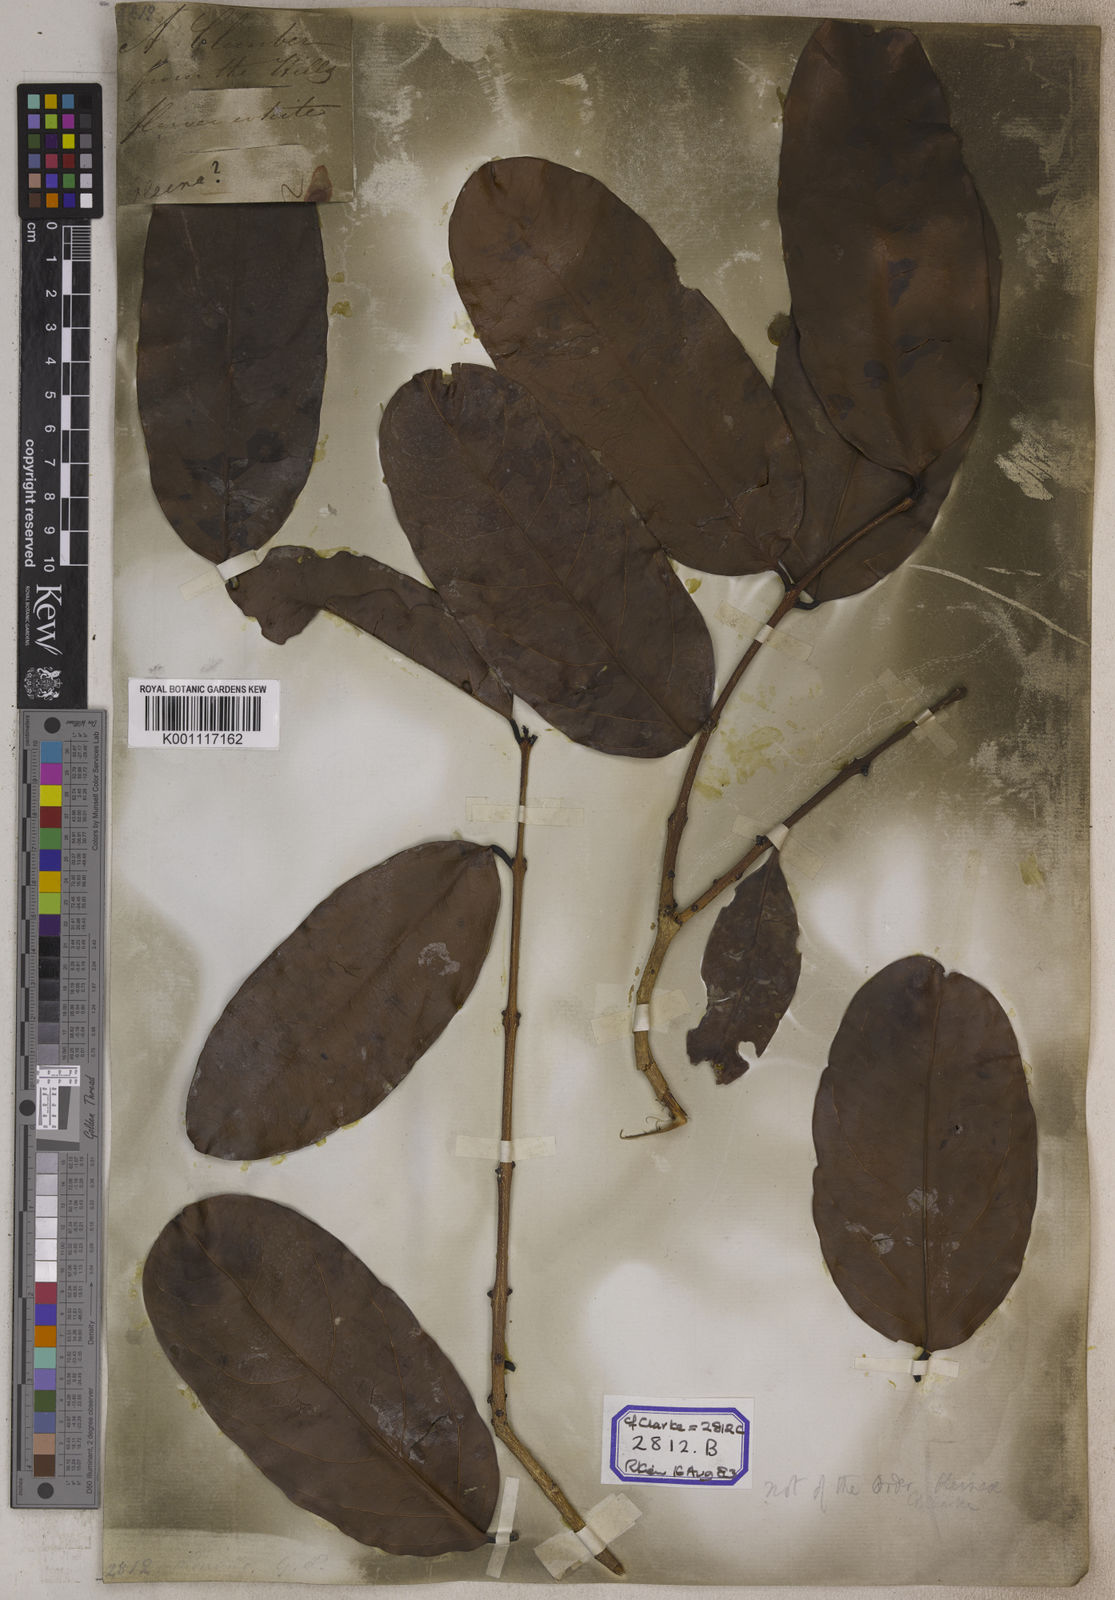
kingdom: Plantae
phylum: Tracheophyta
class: Magnoliopsida
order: Lamiales
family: Oleaceae
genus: Olea
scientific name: Olea
